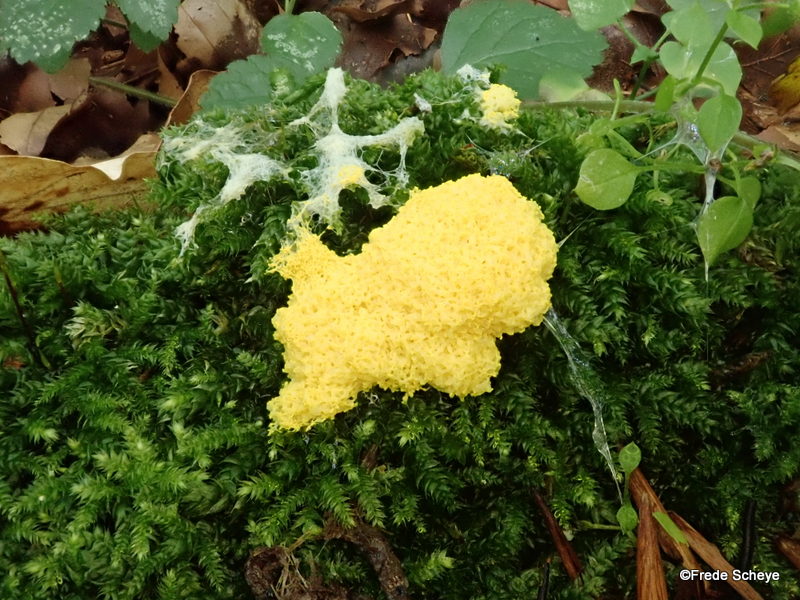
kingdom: Protozoa
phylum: Mycetozoa
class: Myxomycetes
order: Physarales
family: Physaraceae
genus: Fuligo
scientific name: Fuligo septica
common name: gul troldsmør
